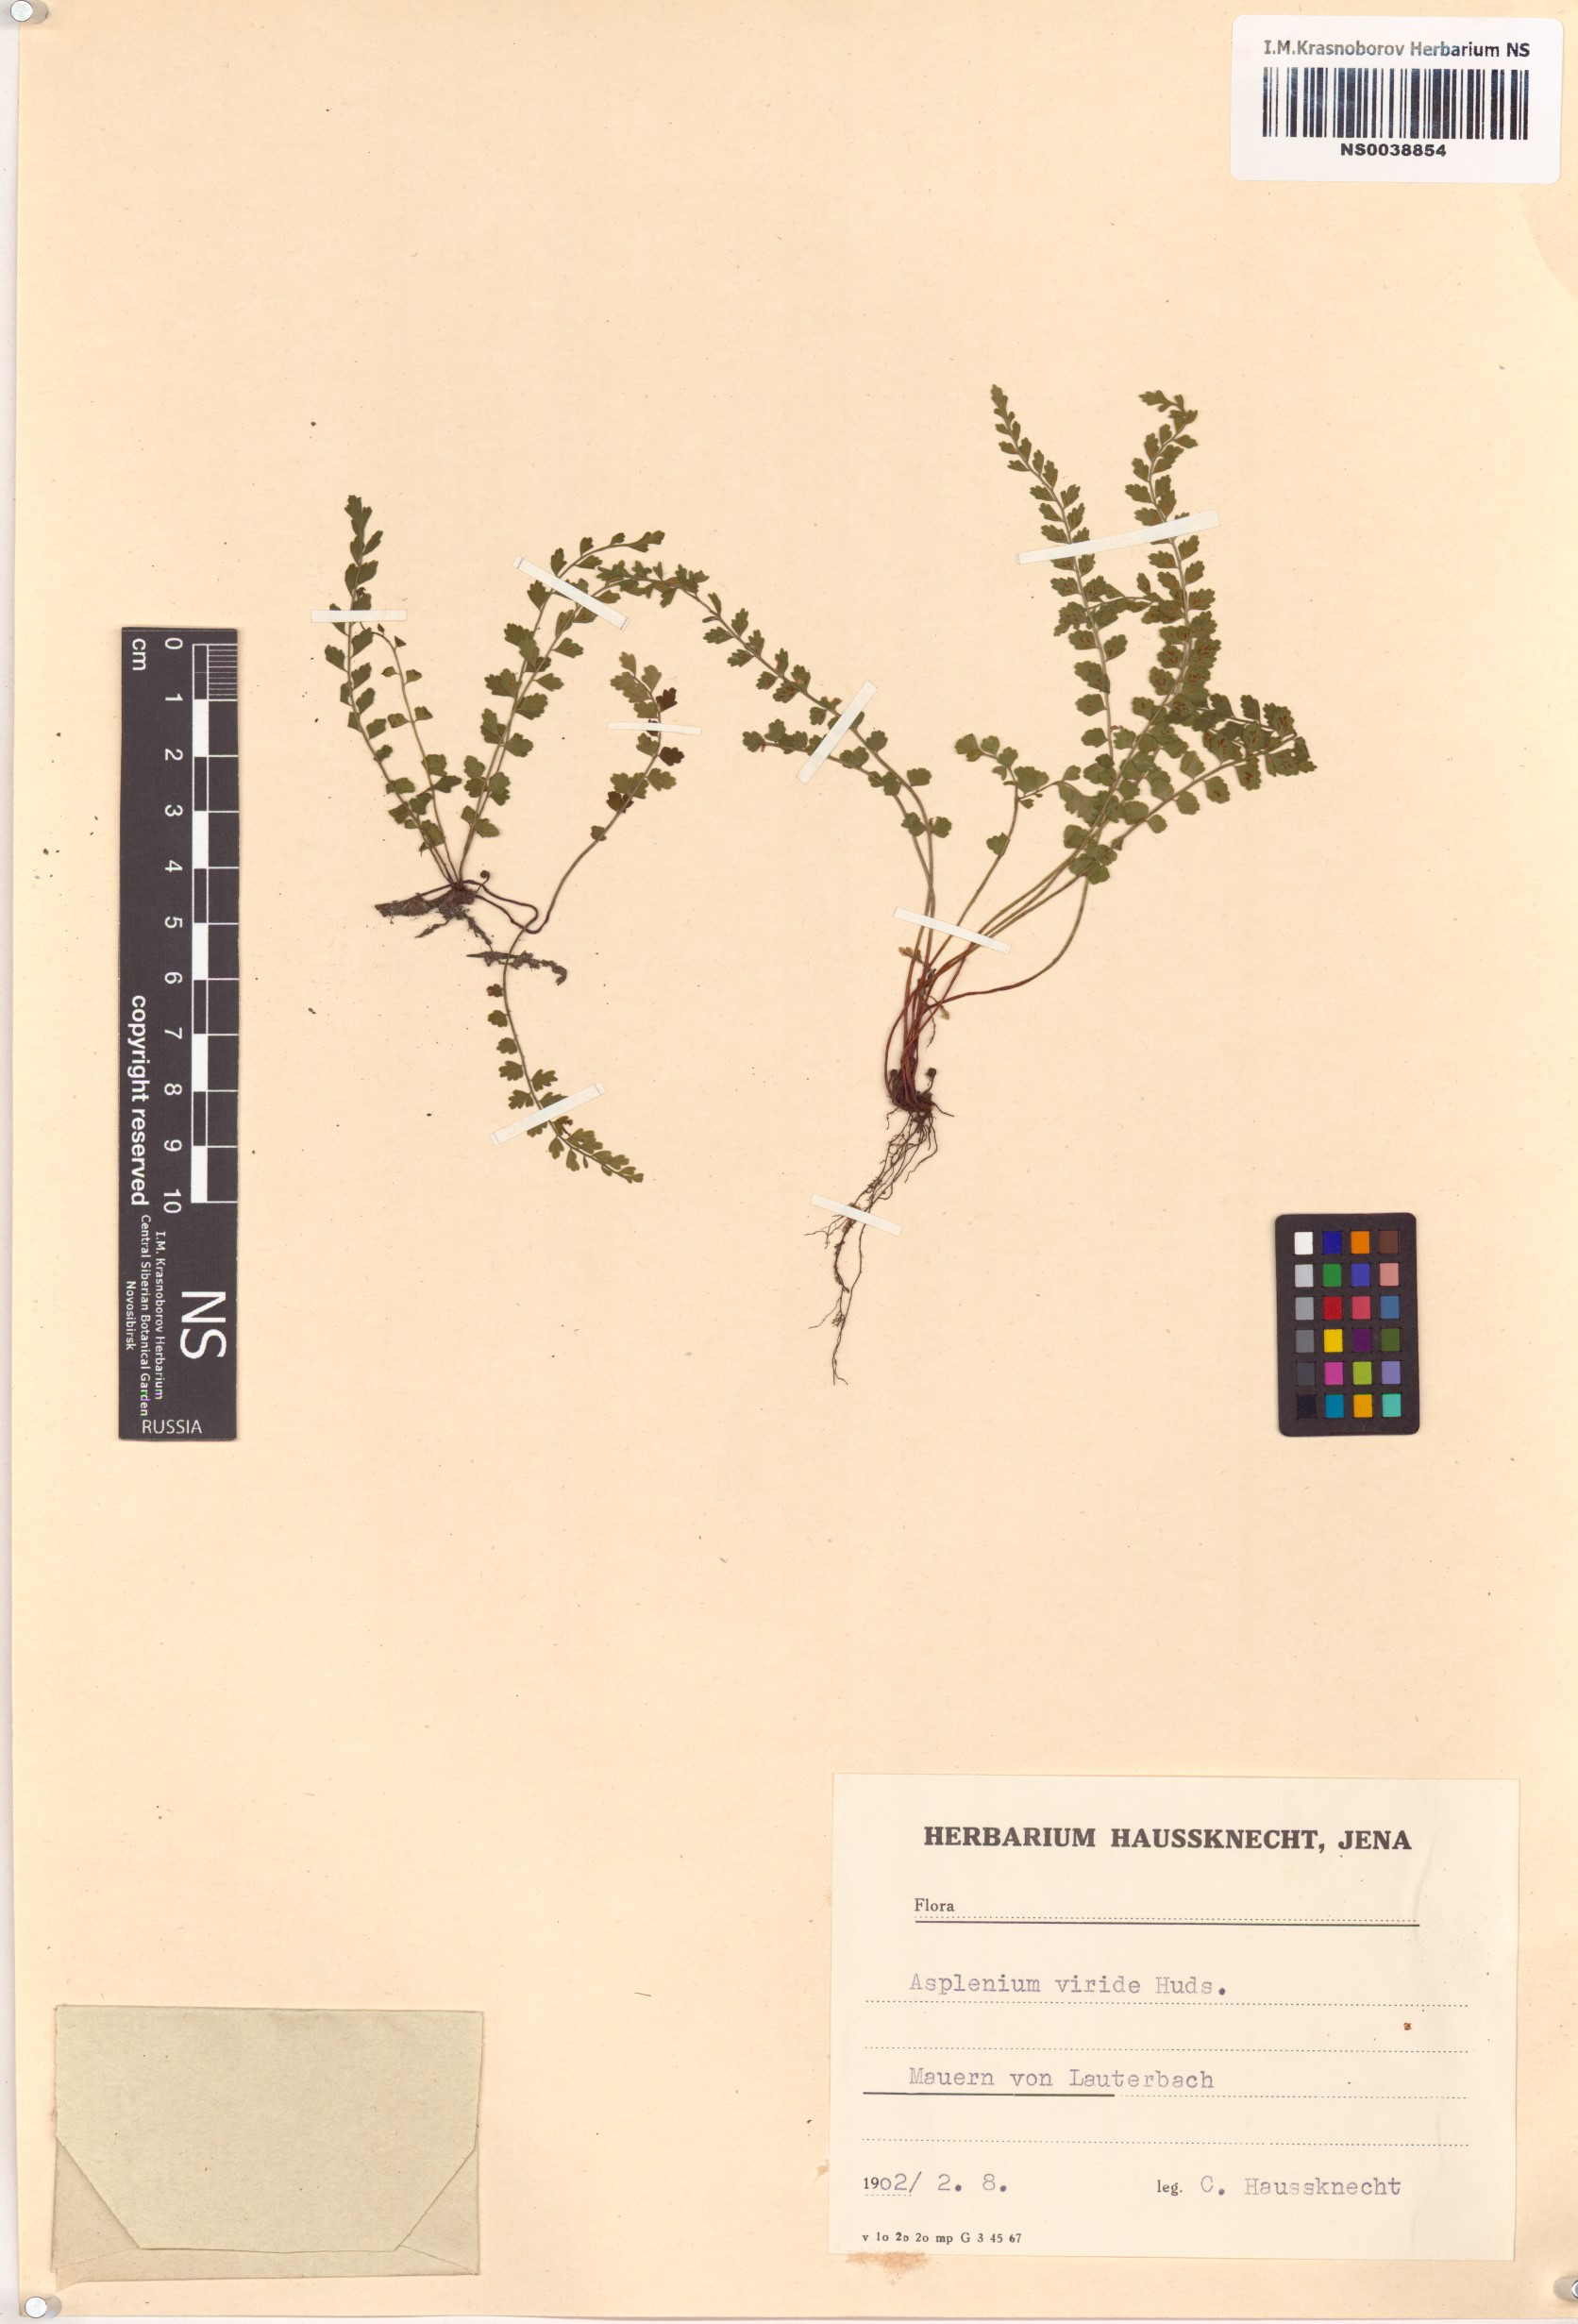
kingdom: Plantae
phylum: Tracheophyta
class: Polypodiopsida
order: Polypodiales
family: Aspleniaceae
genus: Asplenium
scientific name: Asplenium viride
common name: Green spleenwort
